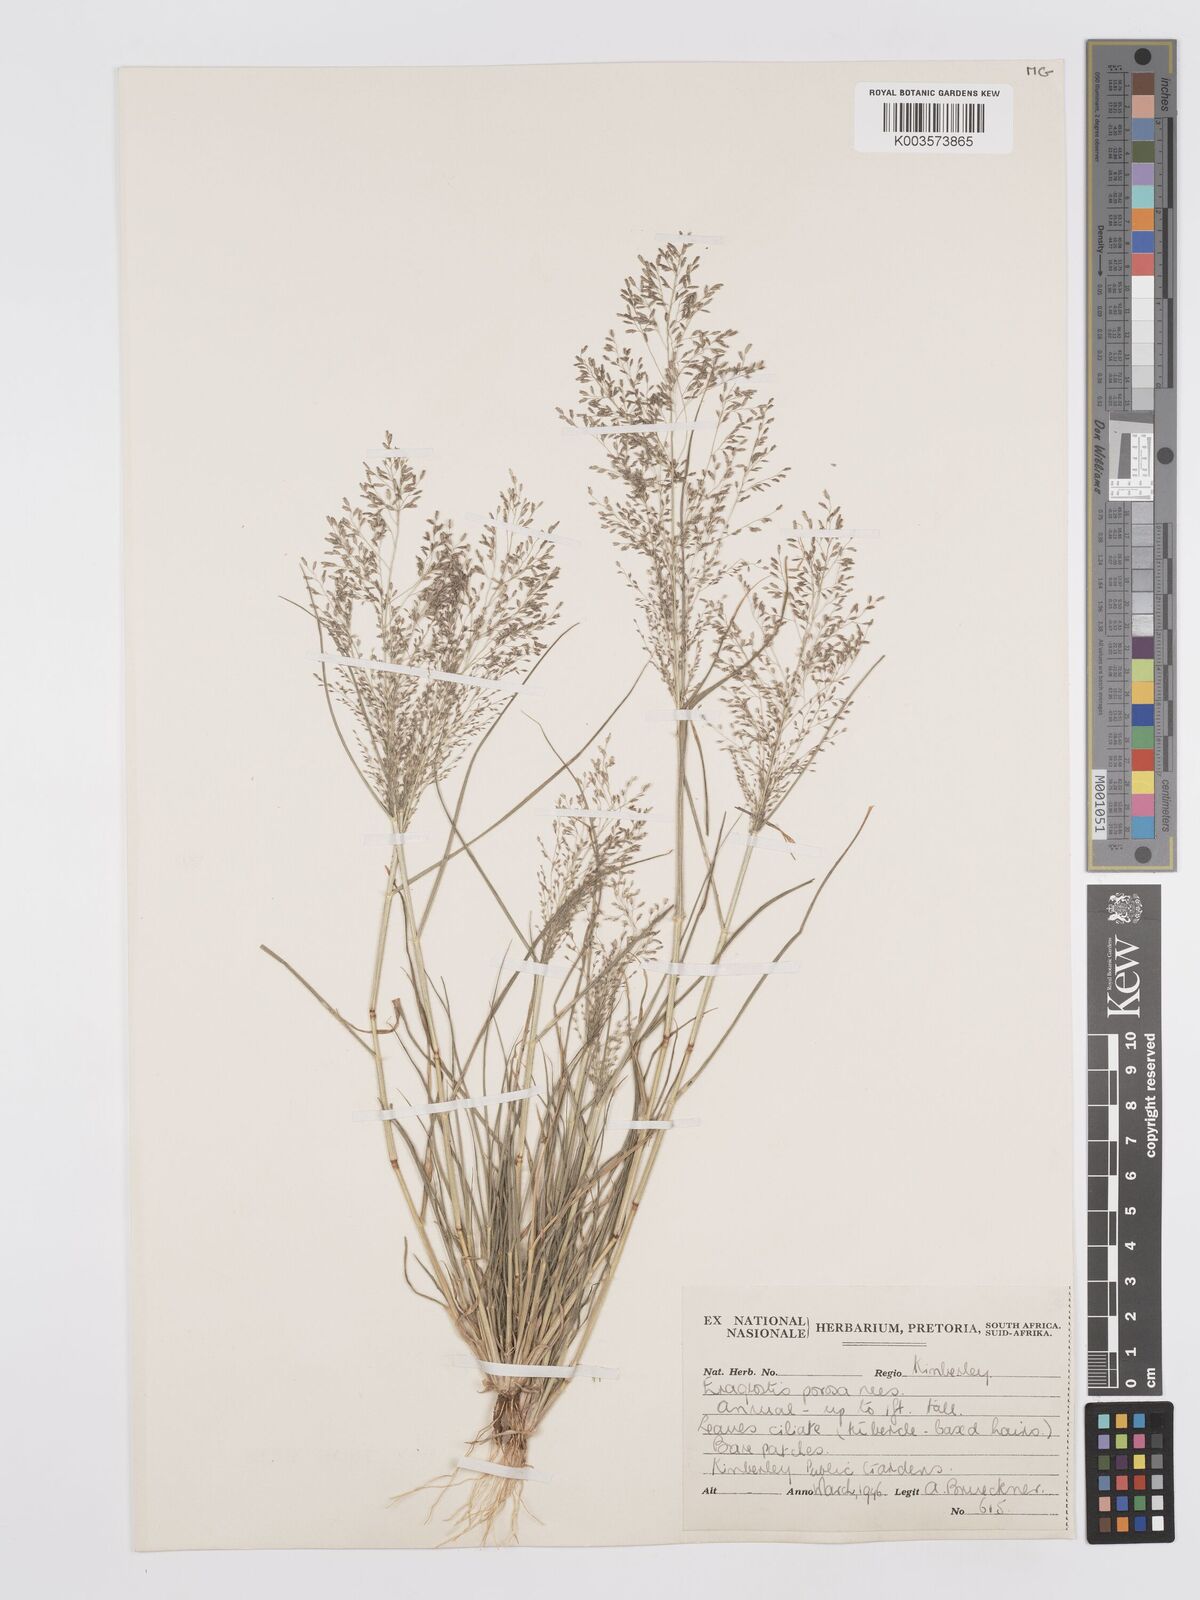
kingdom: Plantae
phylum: Tracheophyta
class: Liliopsida
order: Poales
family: Poaceae
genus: Eragrostis
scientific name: Eragrostis porosa
